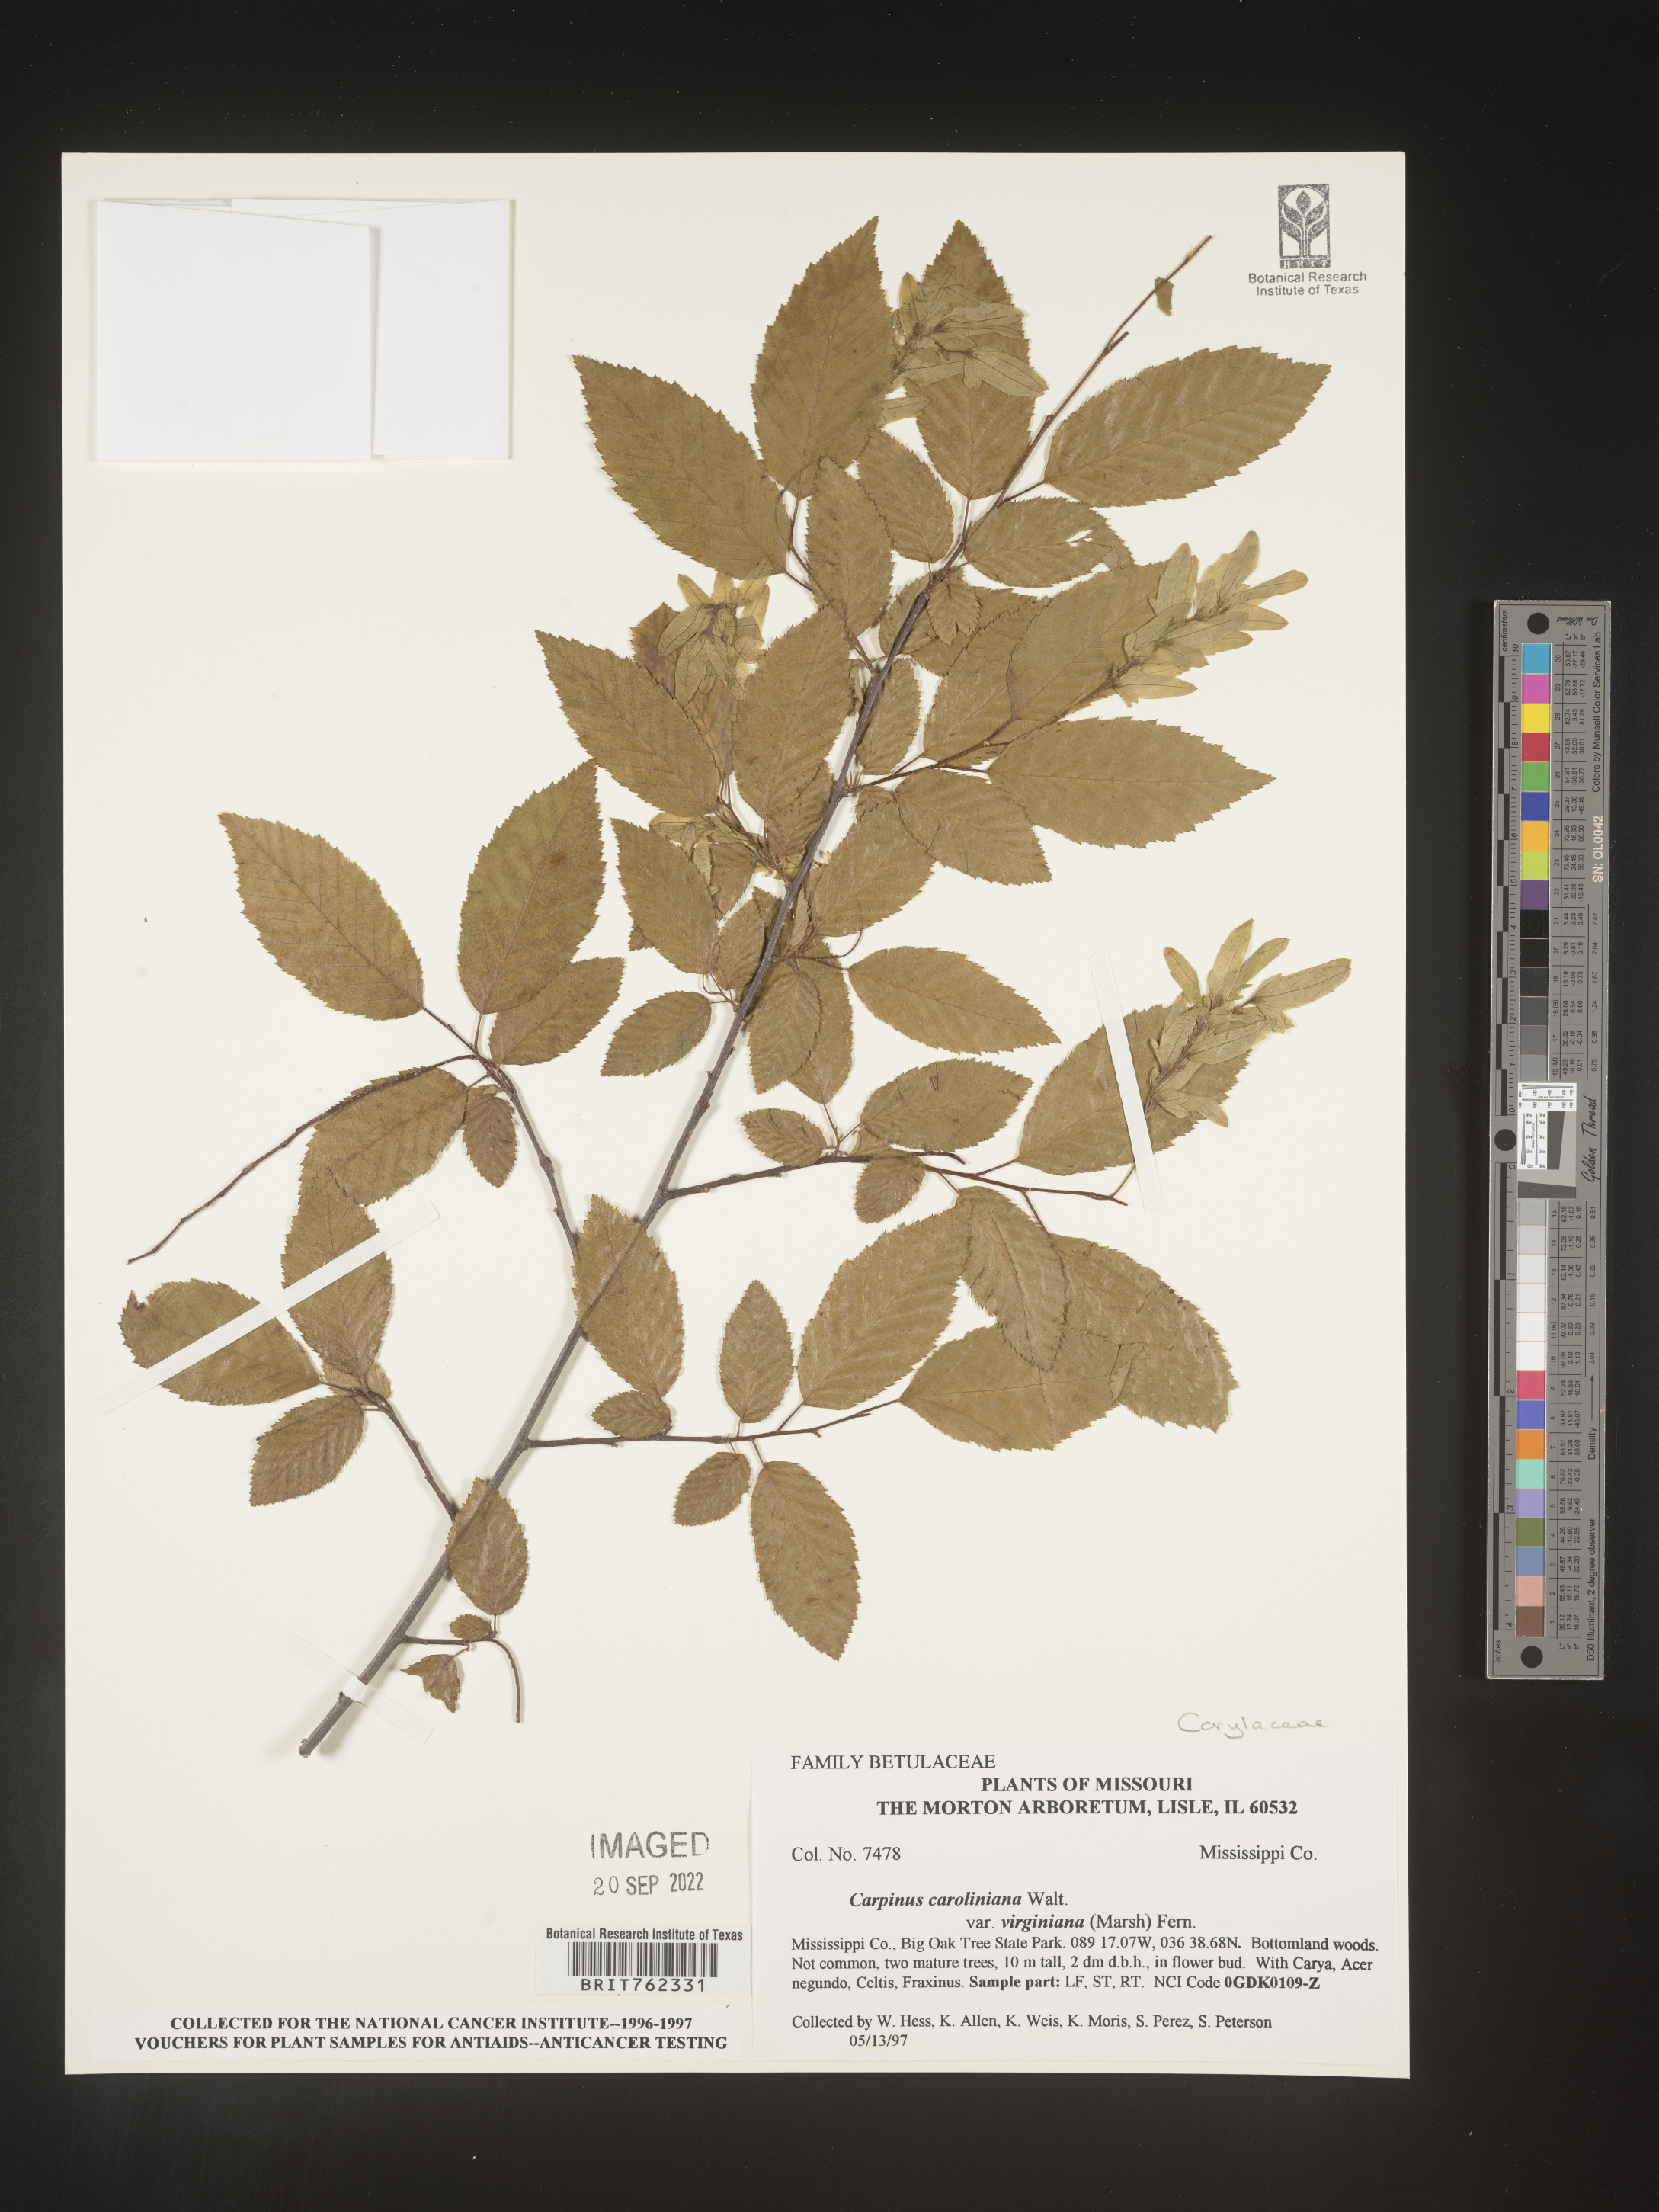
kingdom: Plantae
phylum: Tracheophyta
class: Magnoliopsida
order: Fagales
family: Betulaceae
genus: Carpinus
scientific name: Carpinus caroliniana
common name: American hornbeam
